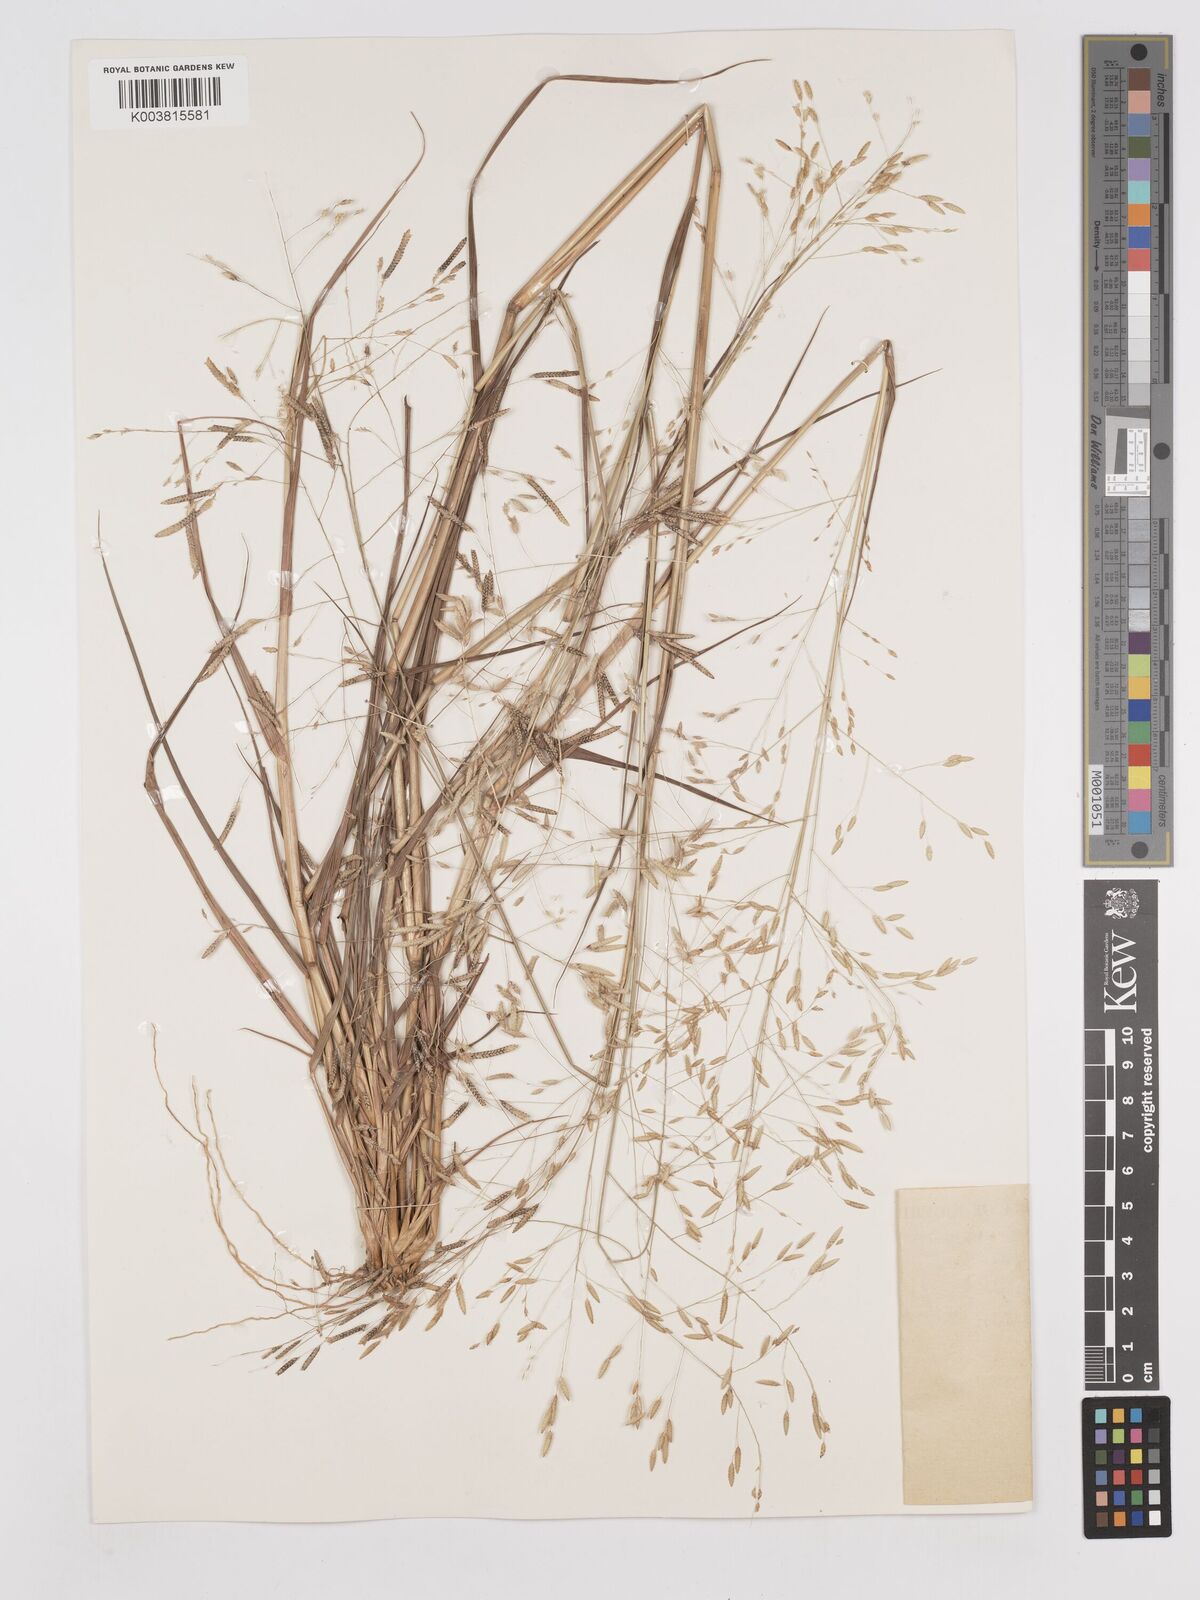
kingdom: Plantae
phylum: Tracheophyta
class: Liliopsida
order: Poales
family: Poaceae
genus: Eragrostis
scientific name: Eragrostis tremula
